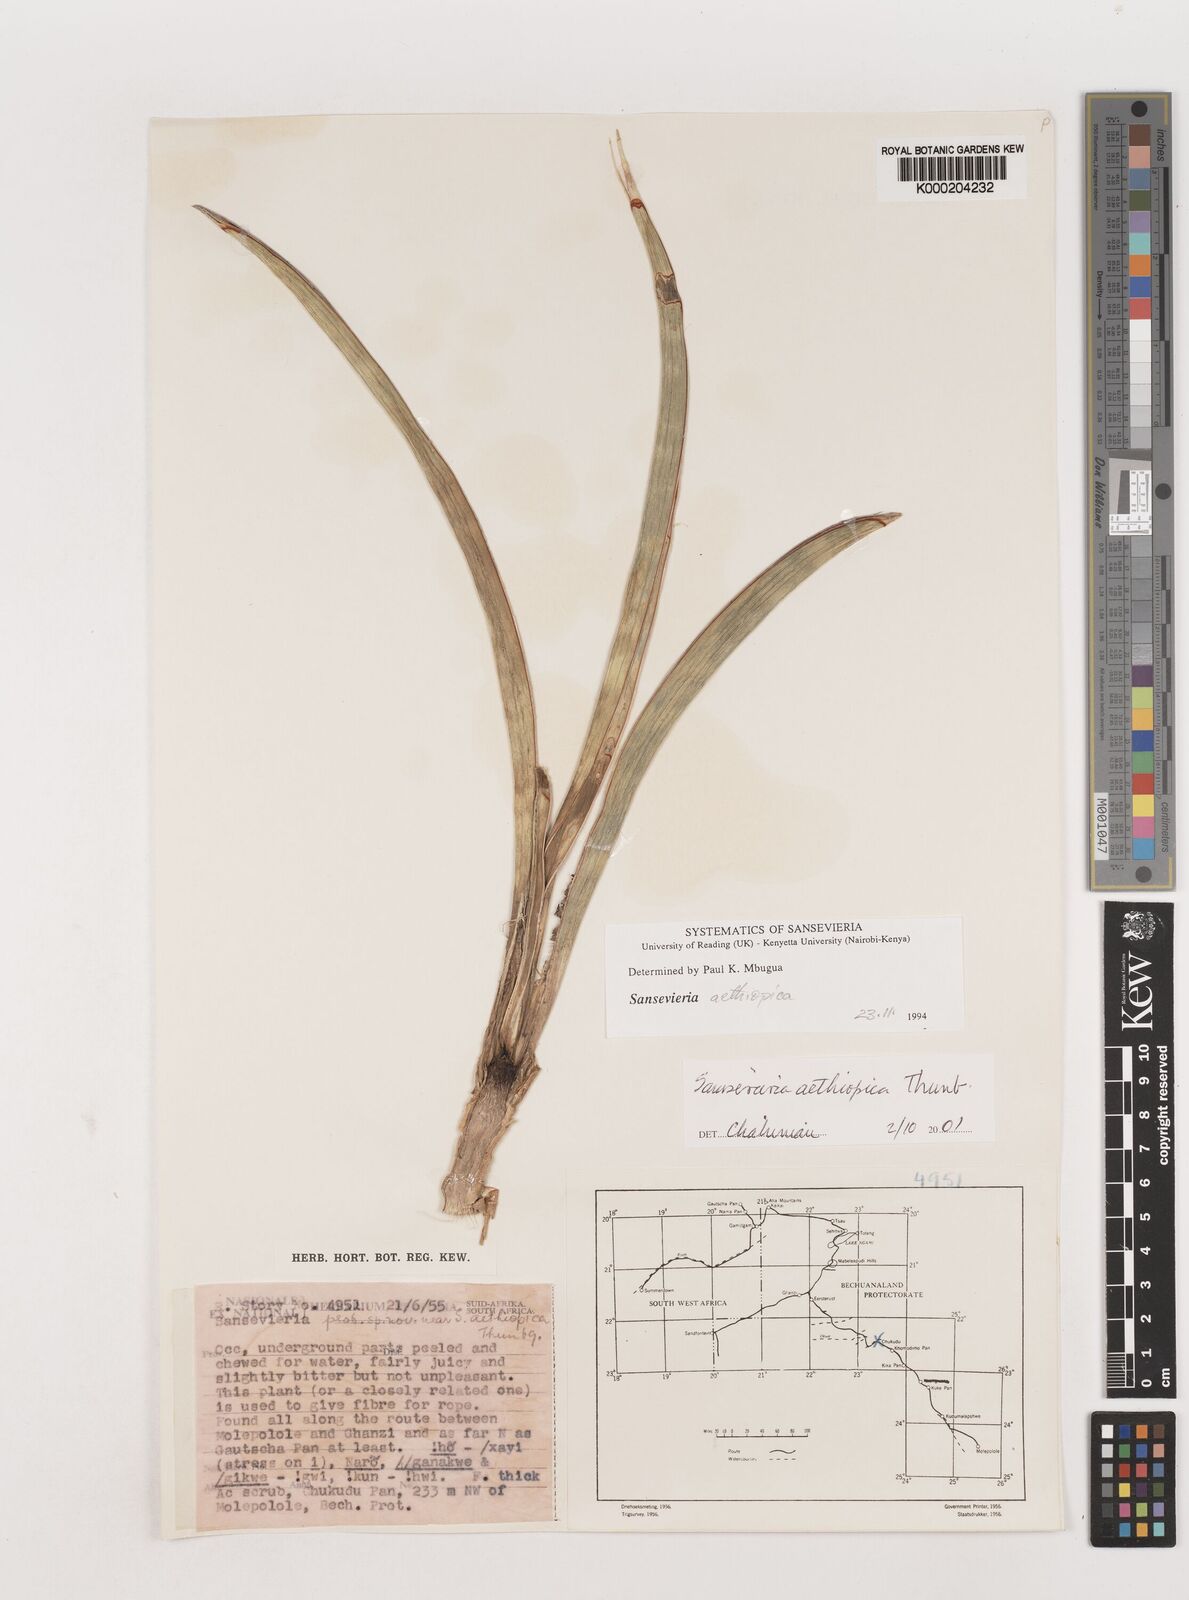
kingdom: Plantae
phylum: Tracheophyta
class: Liliopsida
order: Asparagales
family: Asparagaceae
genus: Dracaena
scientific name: Dracaena aethiopica
